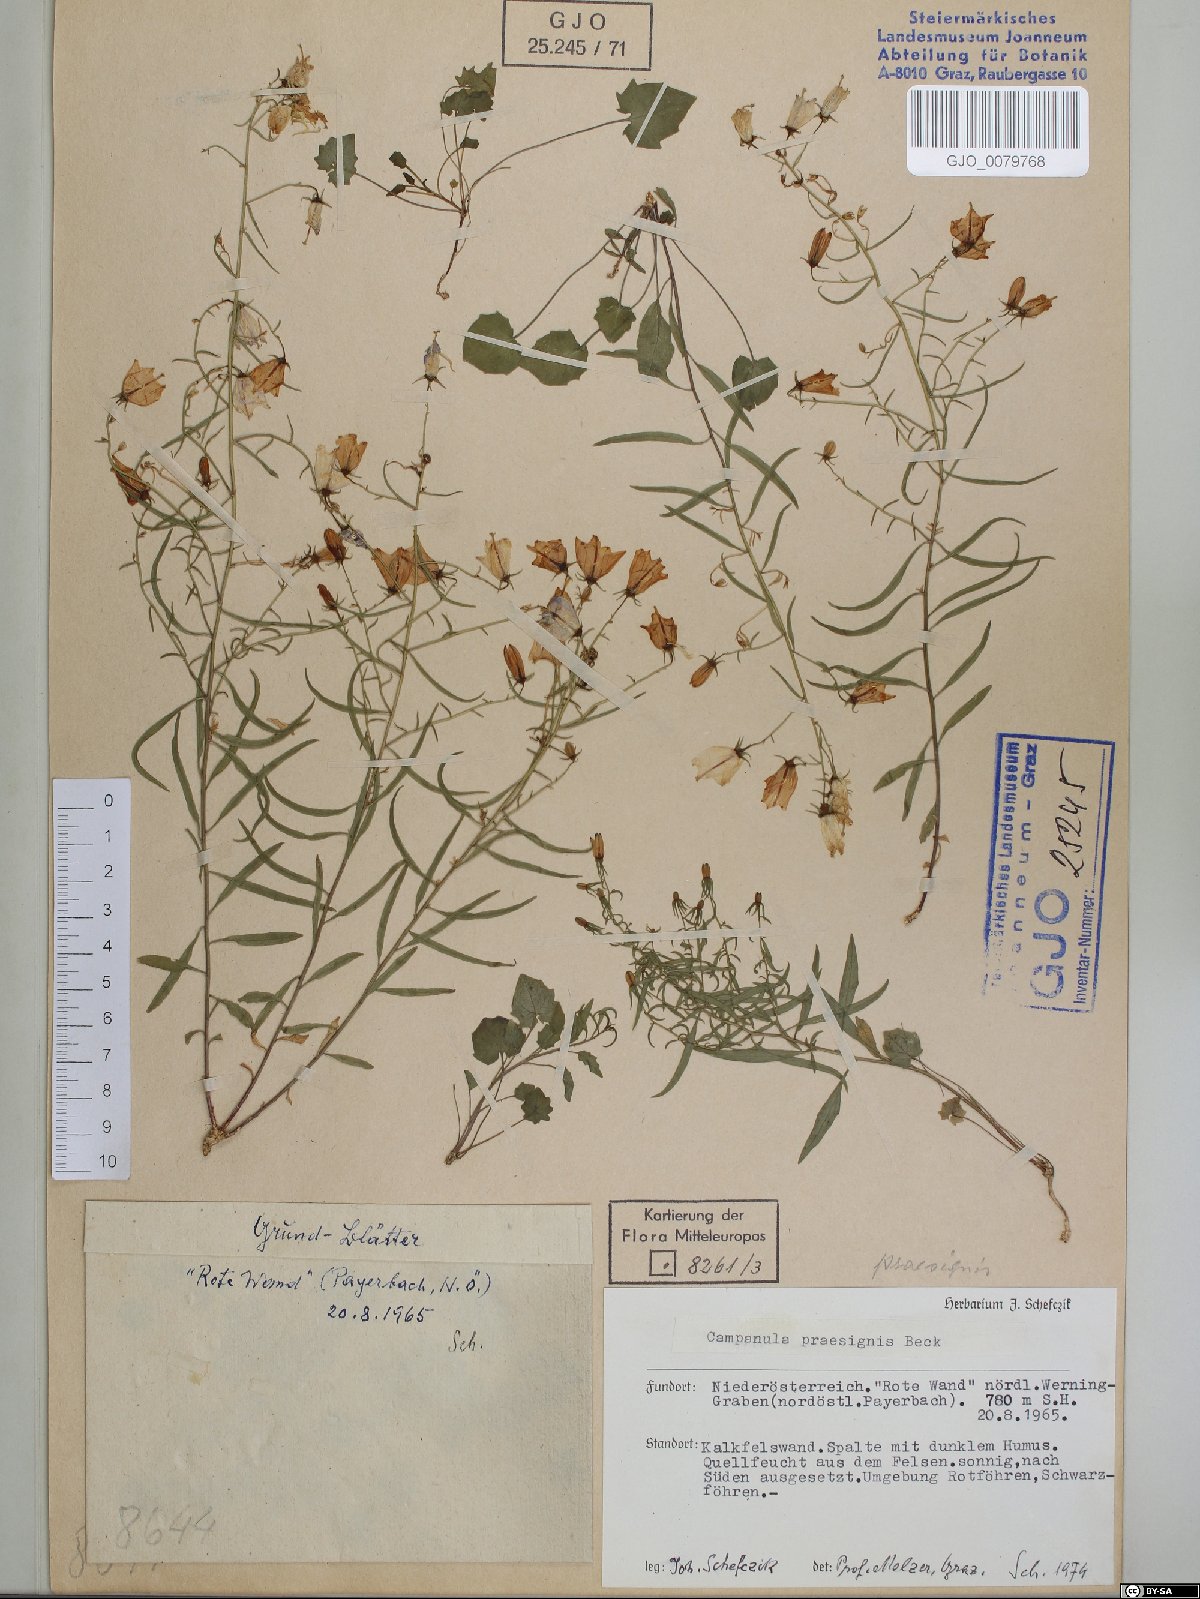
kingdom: Plantae
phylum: Tracheophyta
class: Magnoliopsida
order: Asterales
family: Campanulaceae
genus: Campanula
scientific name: Campanula praesignis
